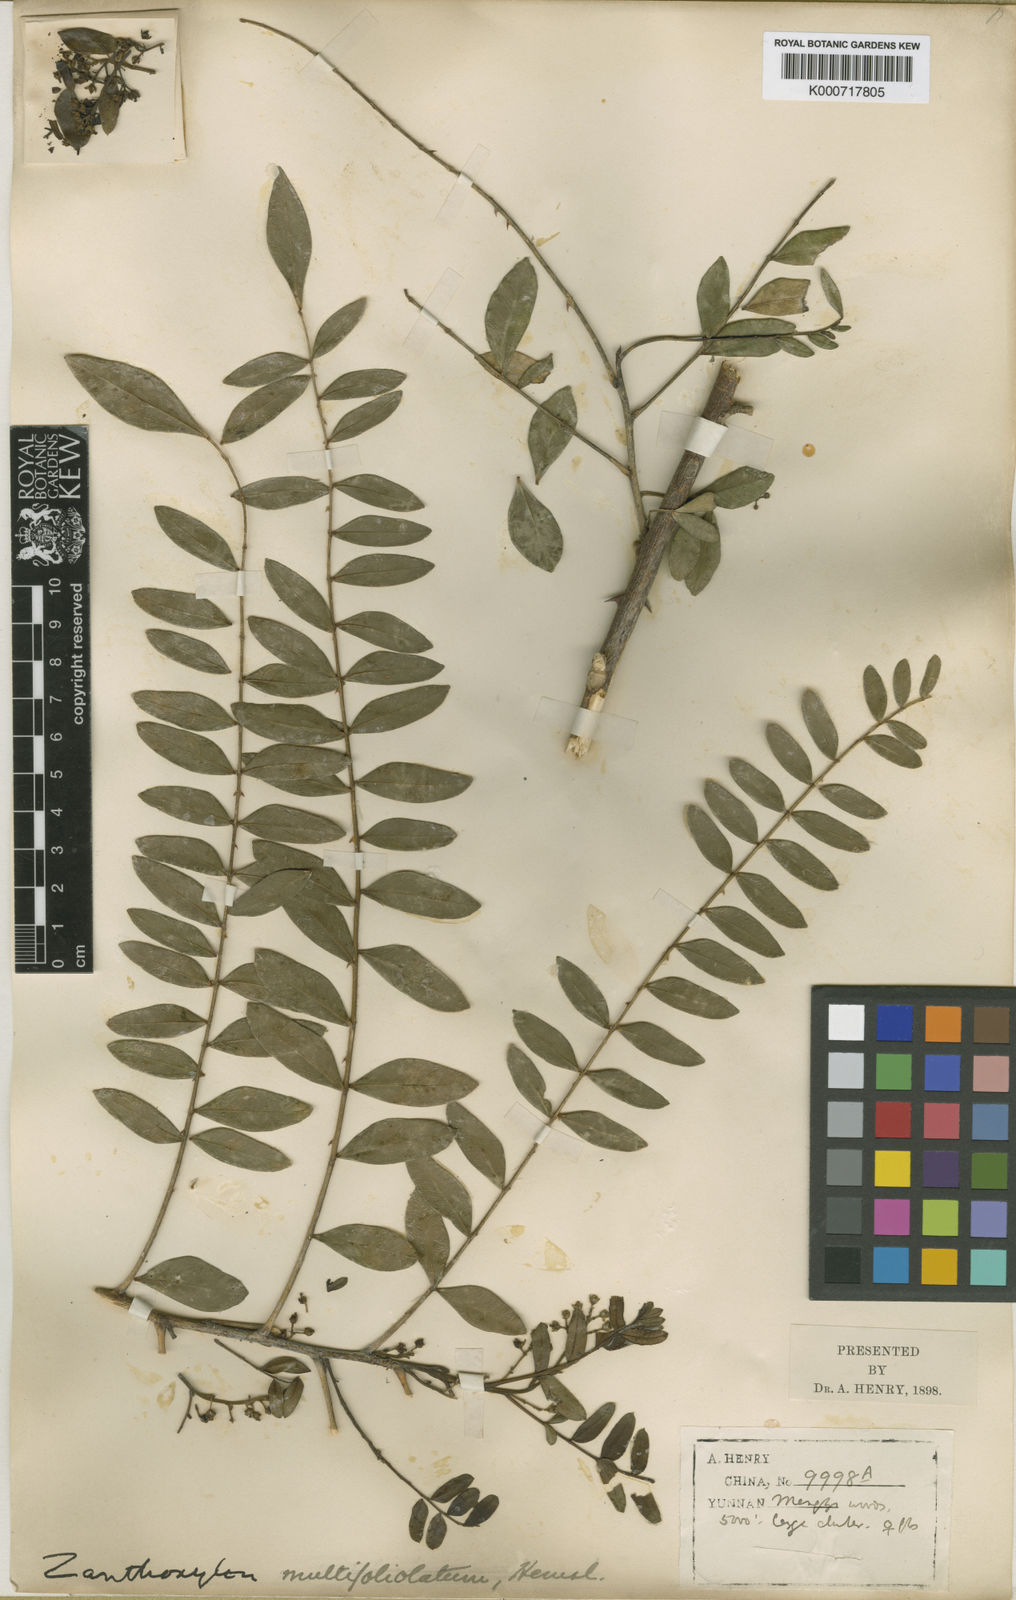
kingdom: Plantae
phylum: Tracheophyta
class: Magnoliopsida
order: Sapindales
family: Rutaceae
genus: Zanthoxylum
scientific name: Zanthoxylum multijugum
